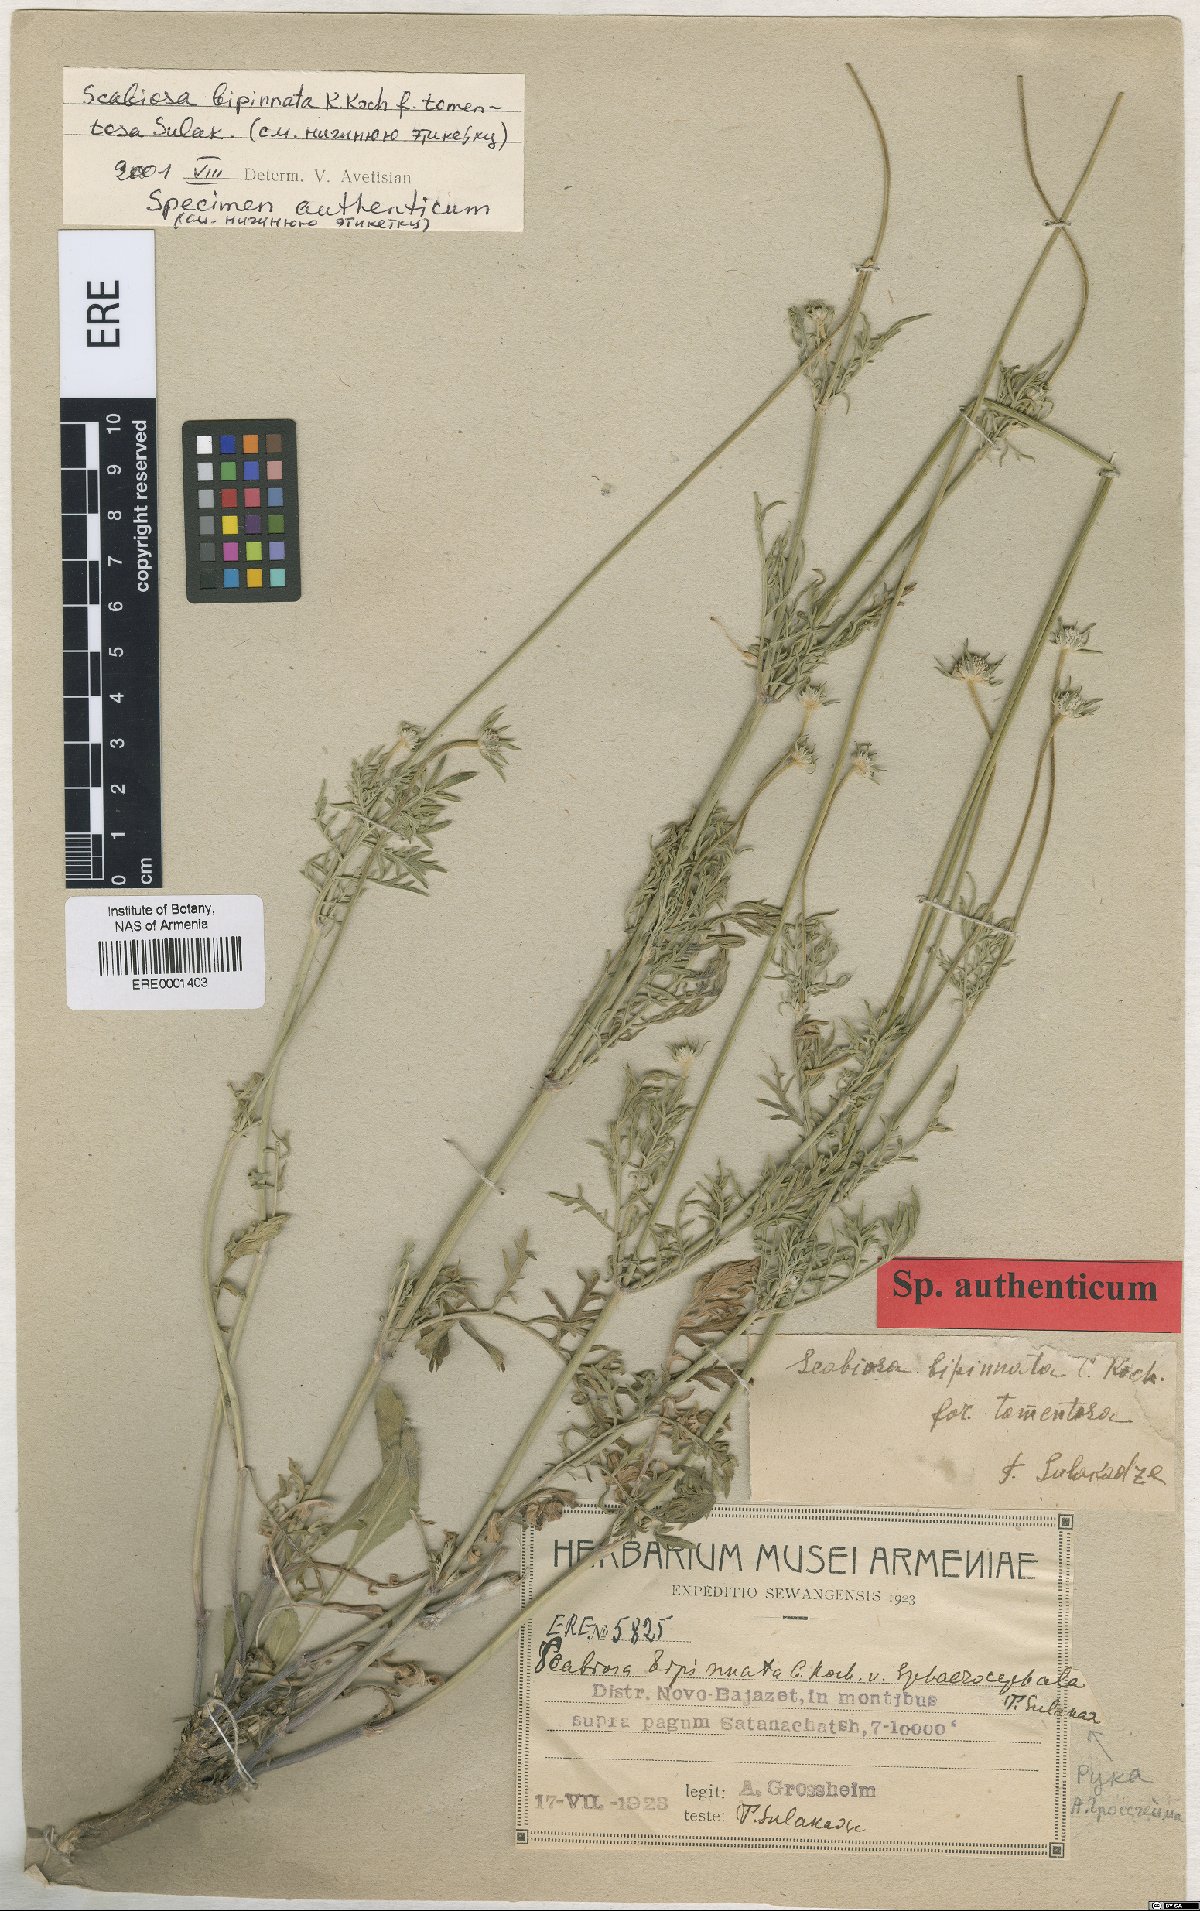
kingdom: Plantae
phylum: Tracheophyta
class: Magnoliopsida
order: Dipsacales
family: Caprifoliaceae
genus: Scabiosa
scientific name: Scabiosa bipinnata
